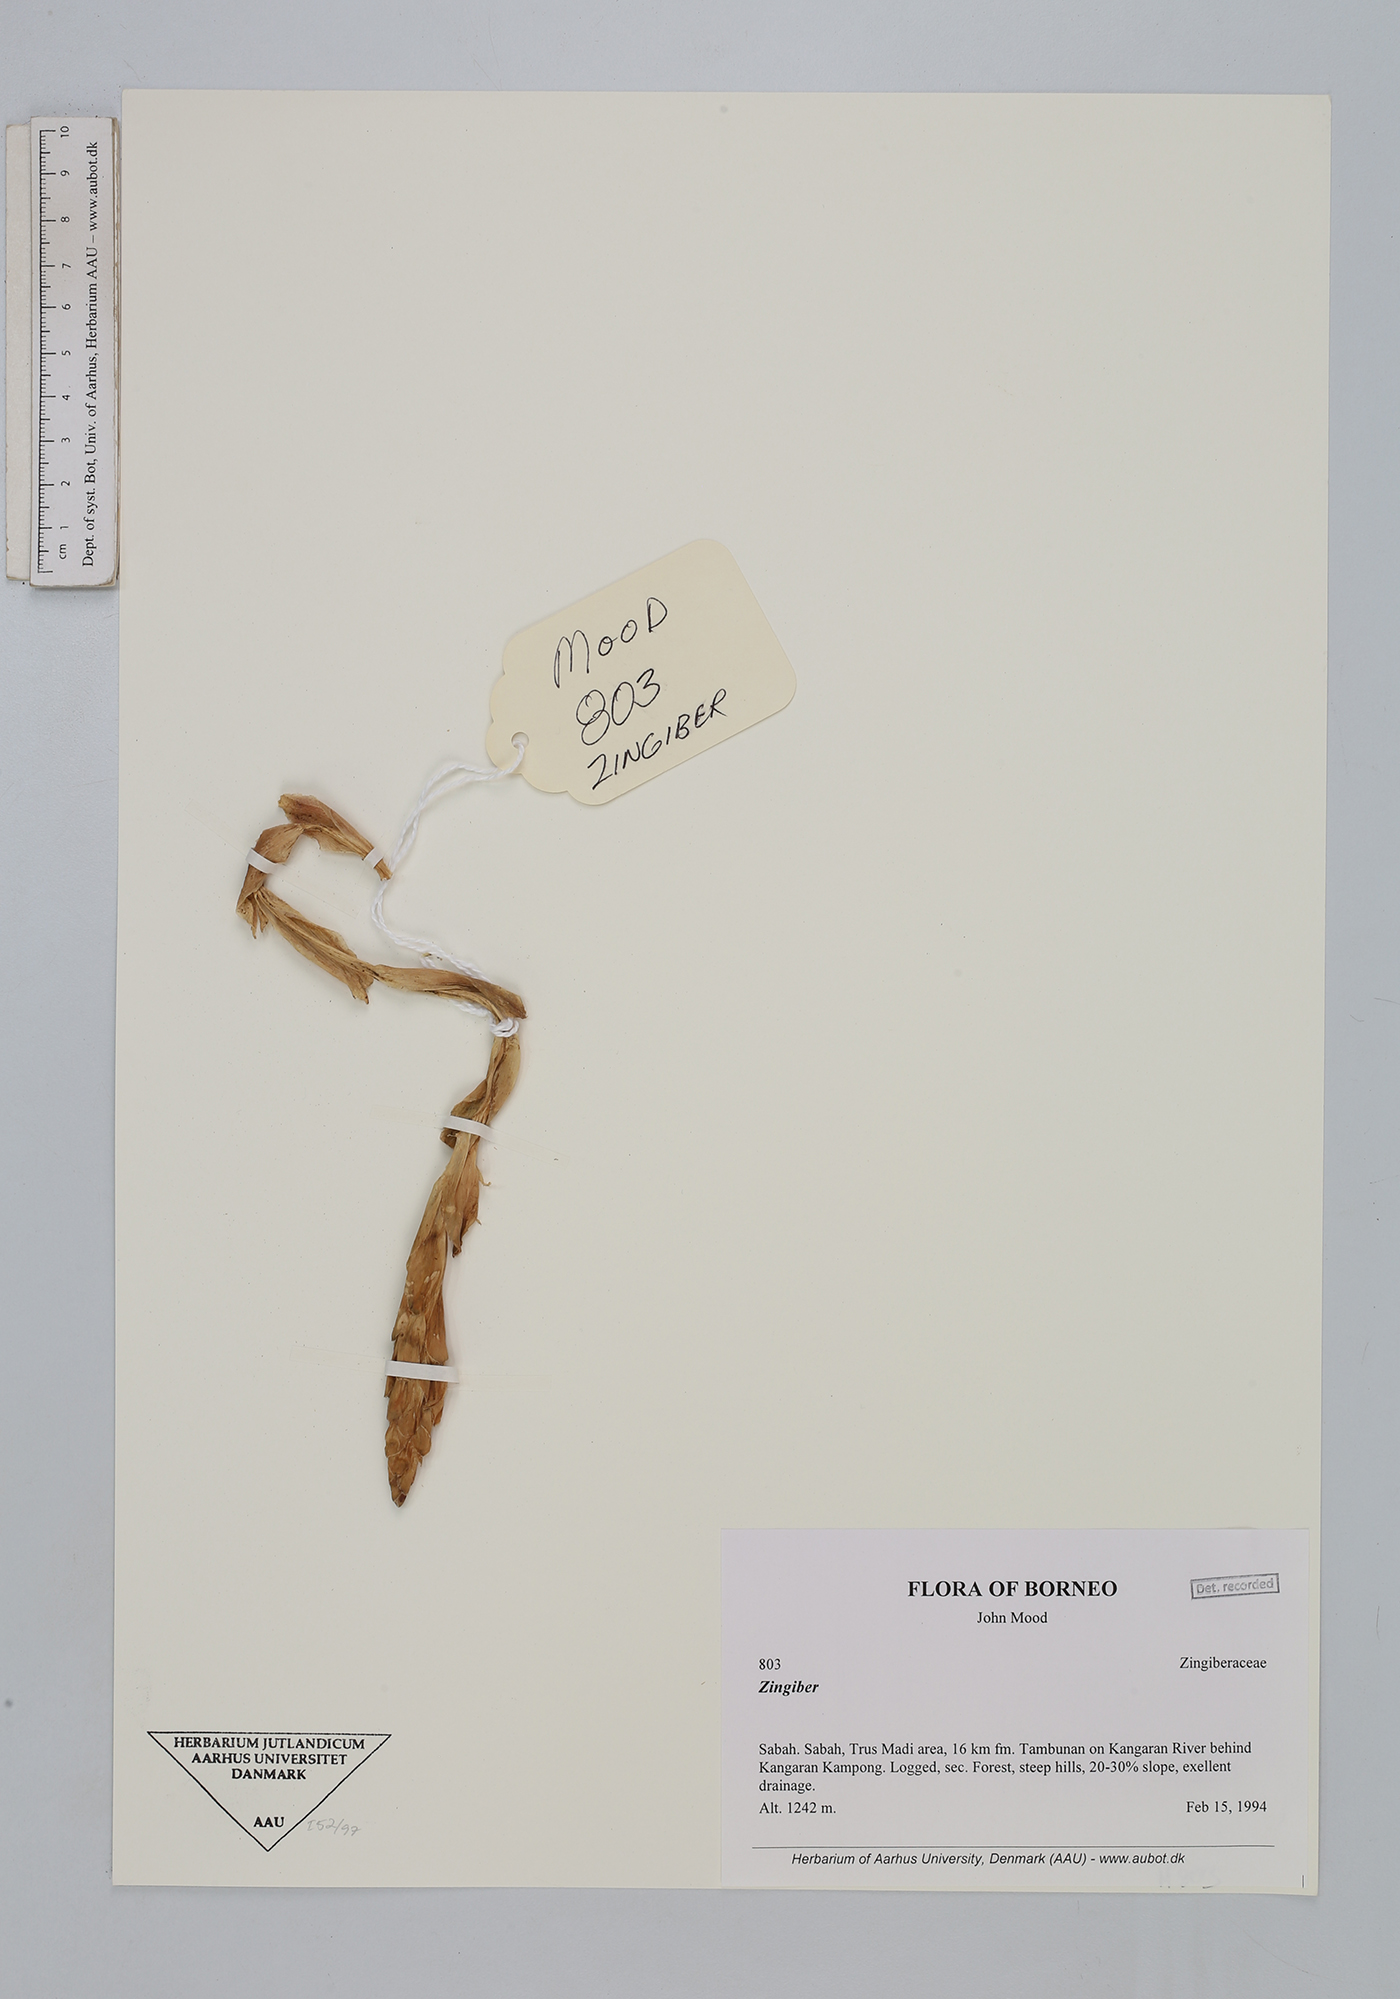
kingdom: Plantae
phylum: Tracheophyta
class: Liliopsida
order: Zingiberales
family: Zingiberaceae
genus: Zingiber
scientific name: Zingiber
